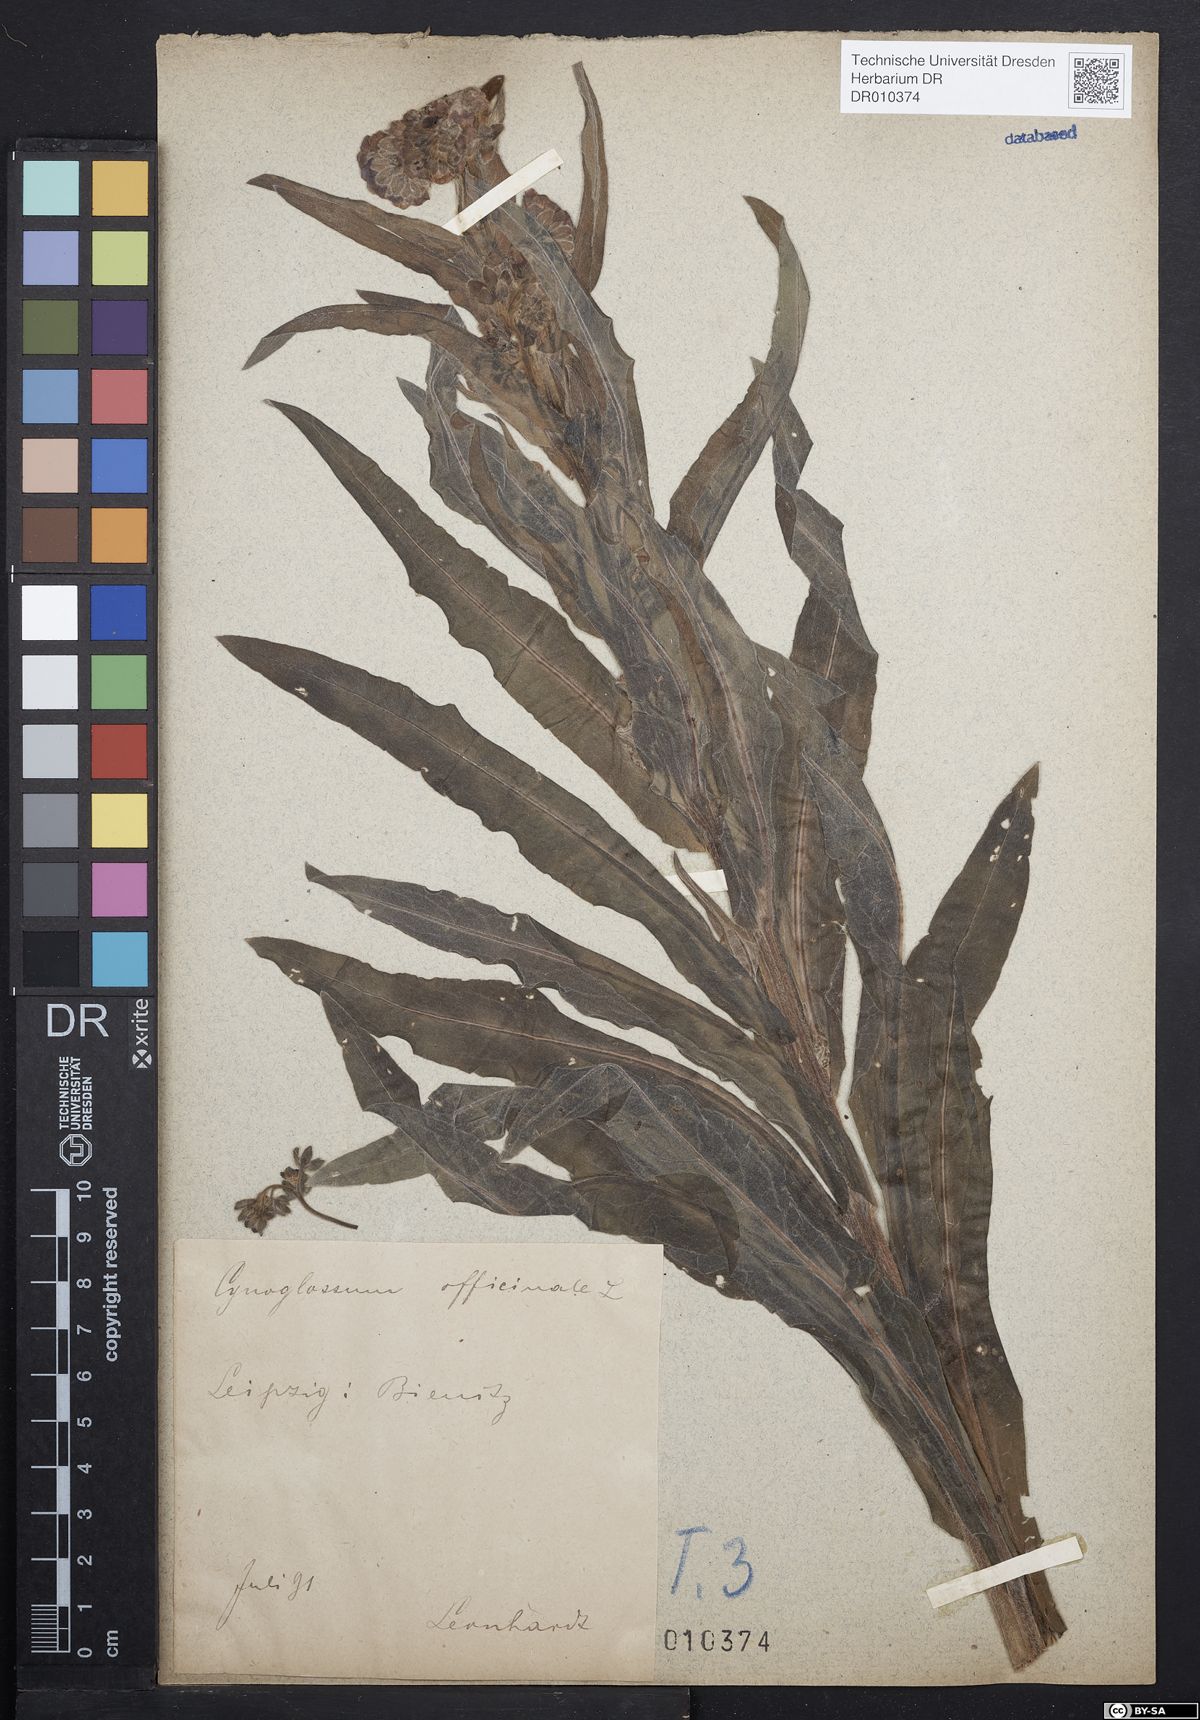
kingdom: Plantae
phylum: Tracheophyta
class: Magnoliopsida
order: Boraginales
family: Boraginaceae
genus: Cynoglossum
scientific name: Cynoglossum officinale
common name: Hound's-tongue
